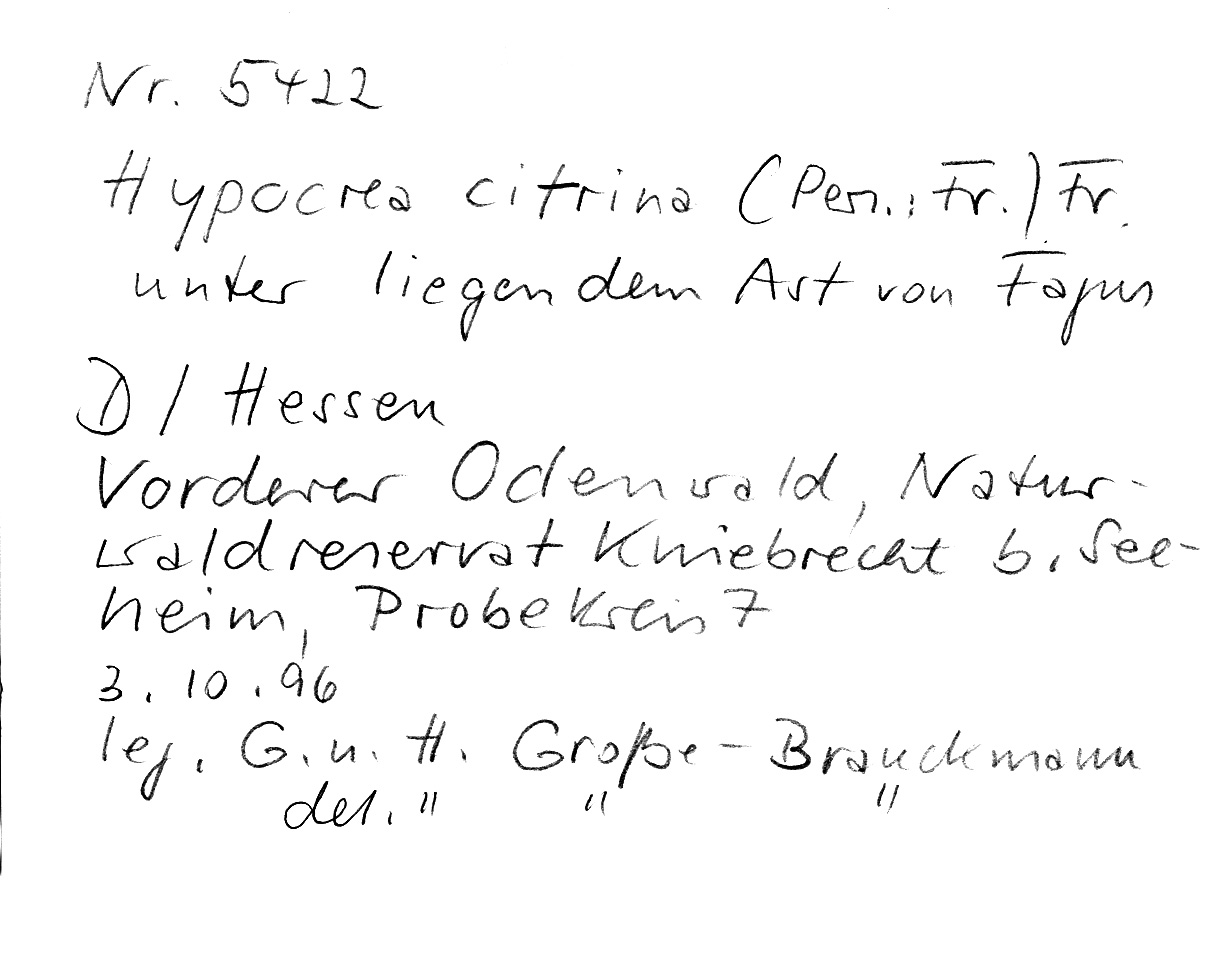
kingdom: Fungi
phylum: Ascomycota
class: Sordariomycetes
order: Hypocreales
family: Hypocreaceae
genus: Trichoderma
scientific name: Trichoderma citrinum
